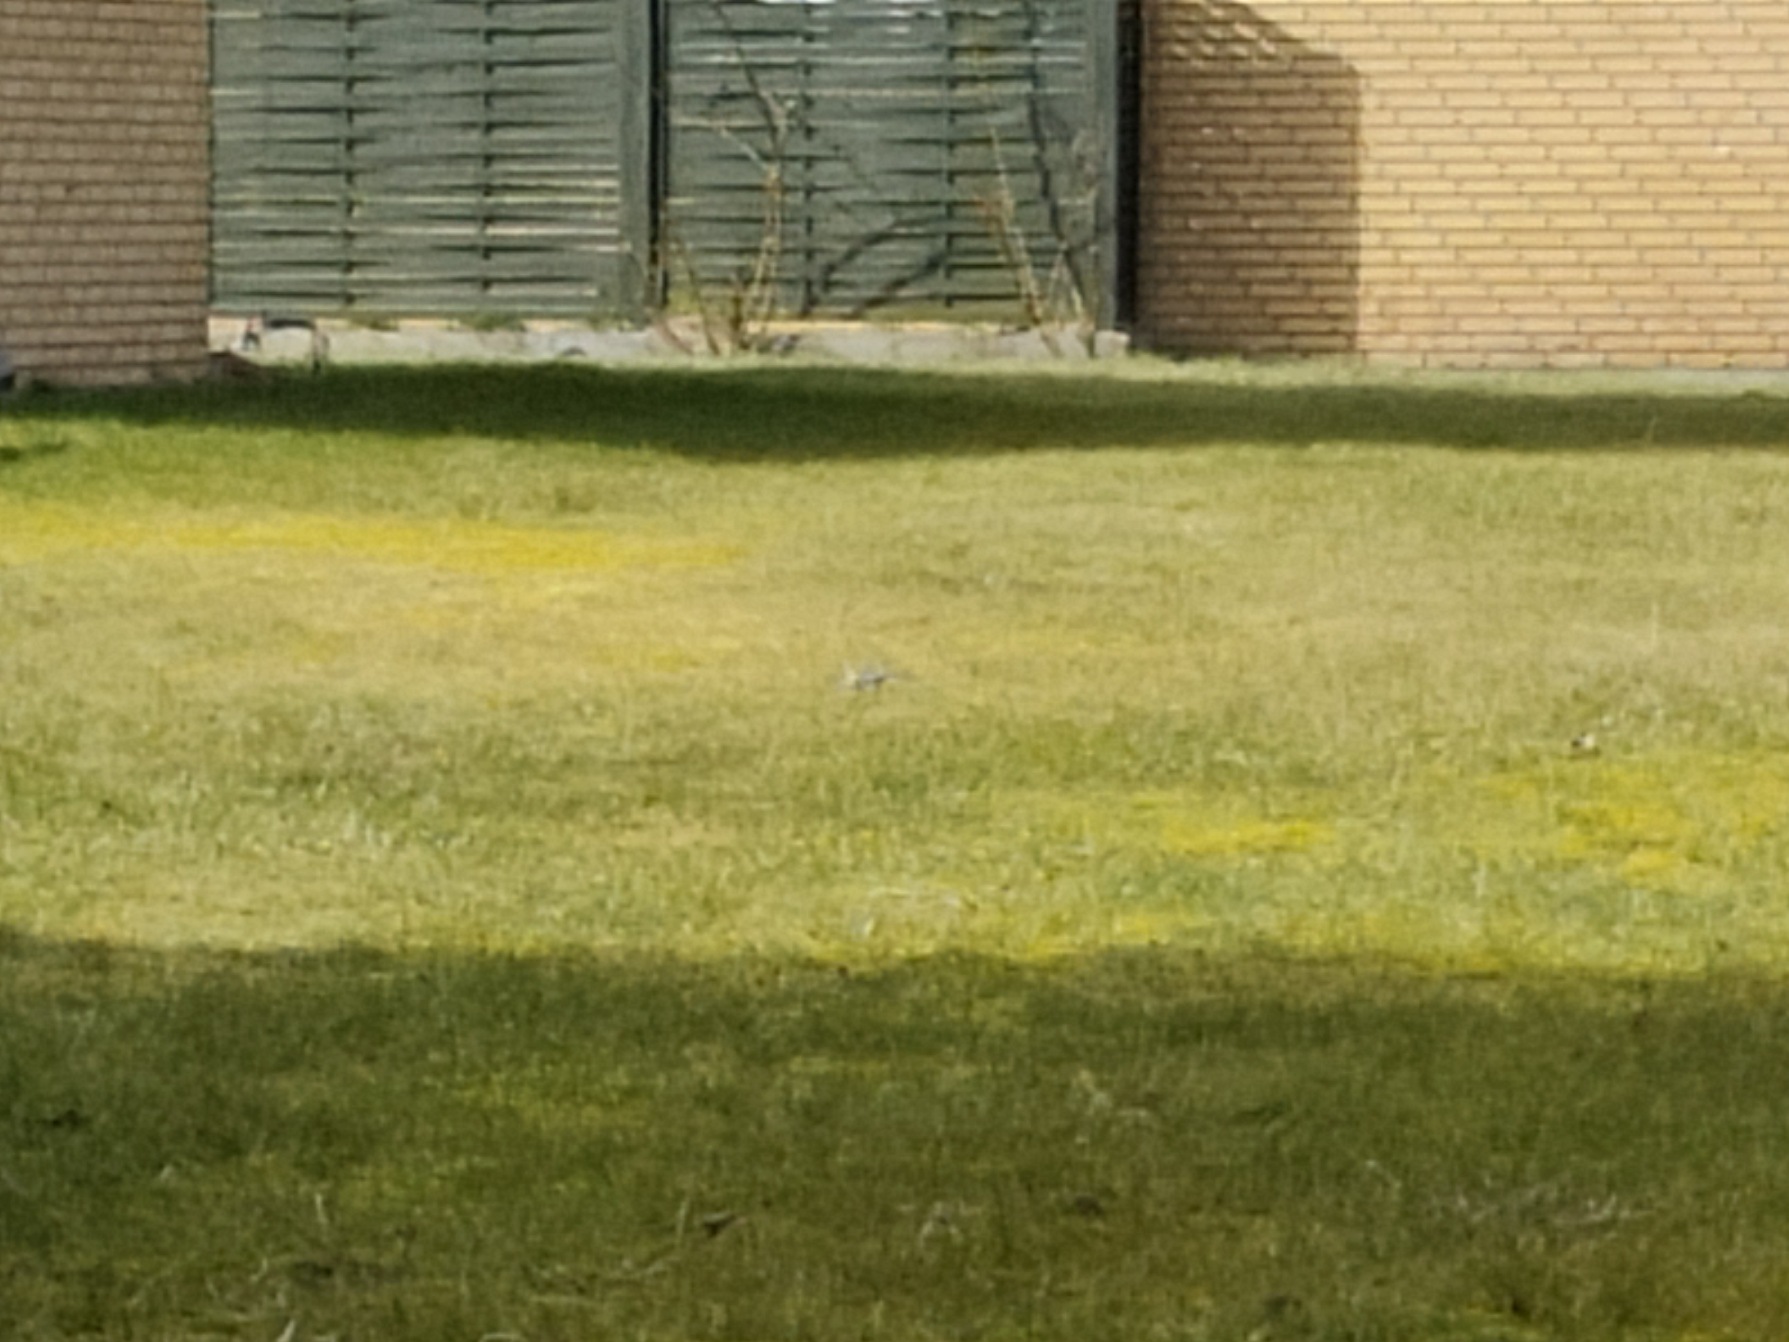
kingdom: Animalia
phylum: Chordata
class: Aves
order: Passeriformes
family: Motacillidae
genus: Motacilla
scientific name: Motacilla alba
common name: Hvid vipstjert
